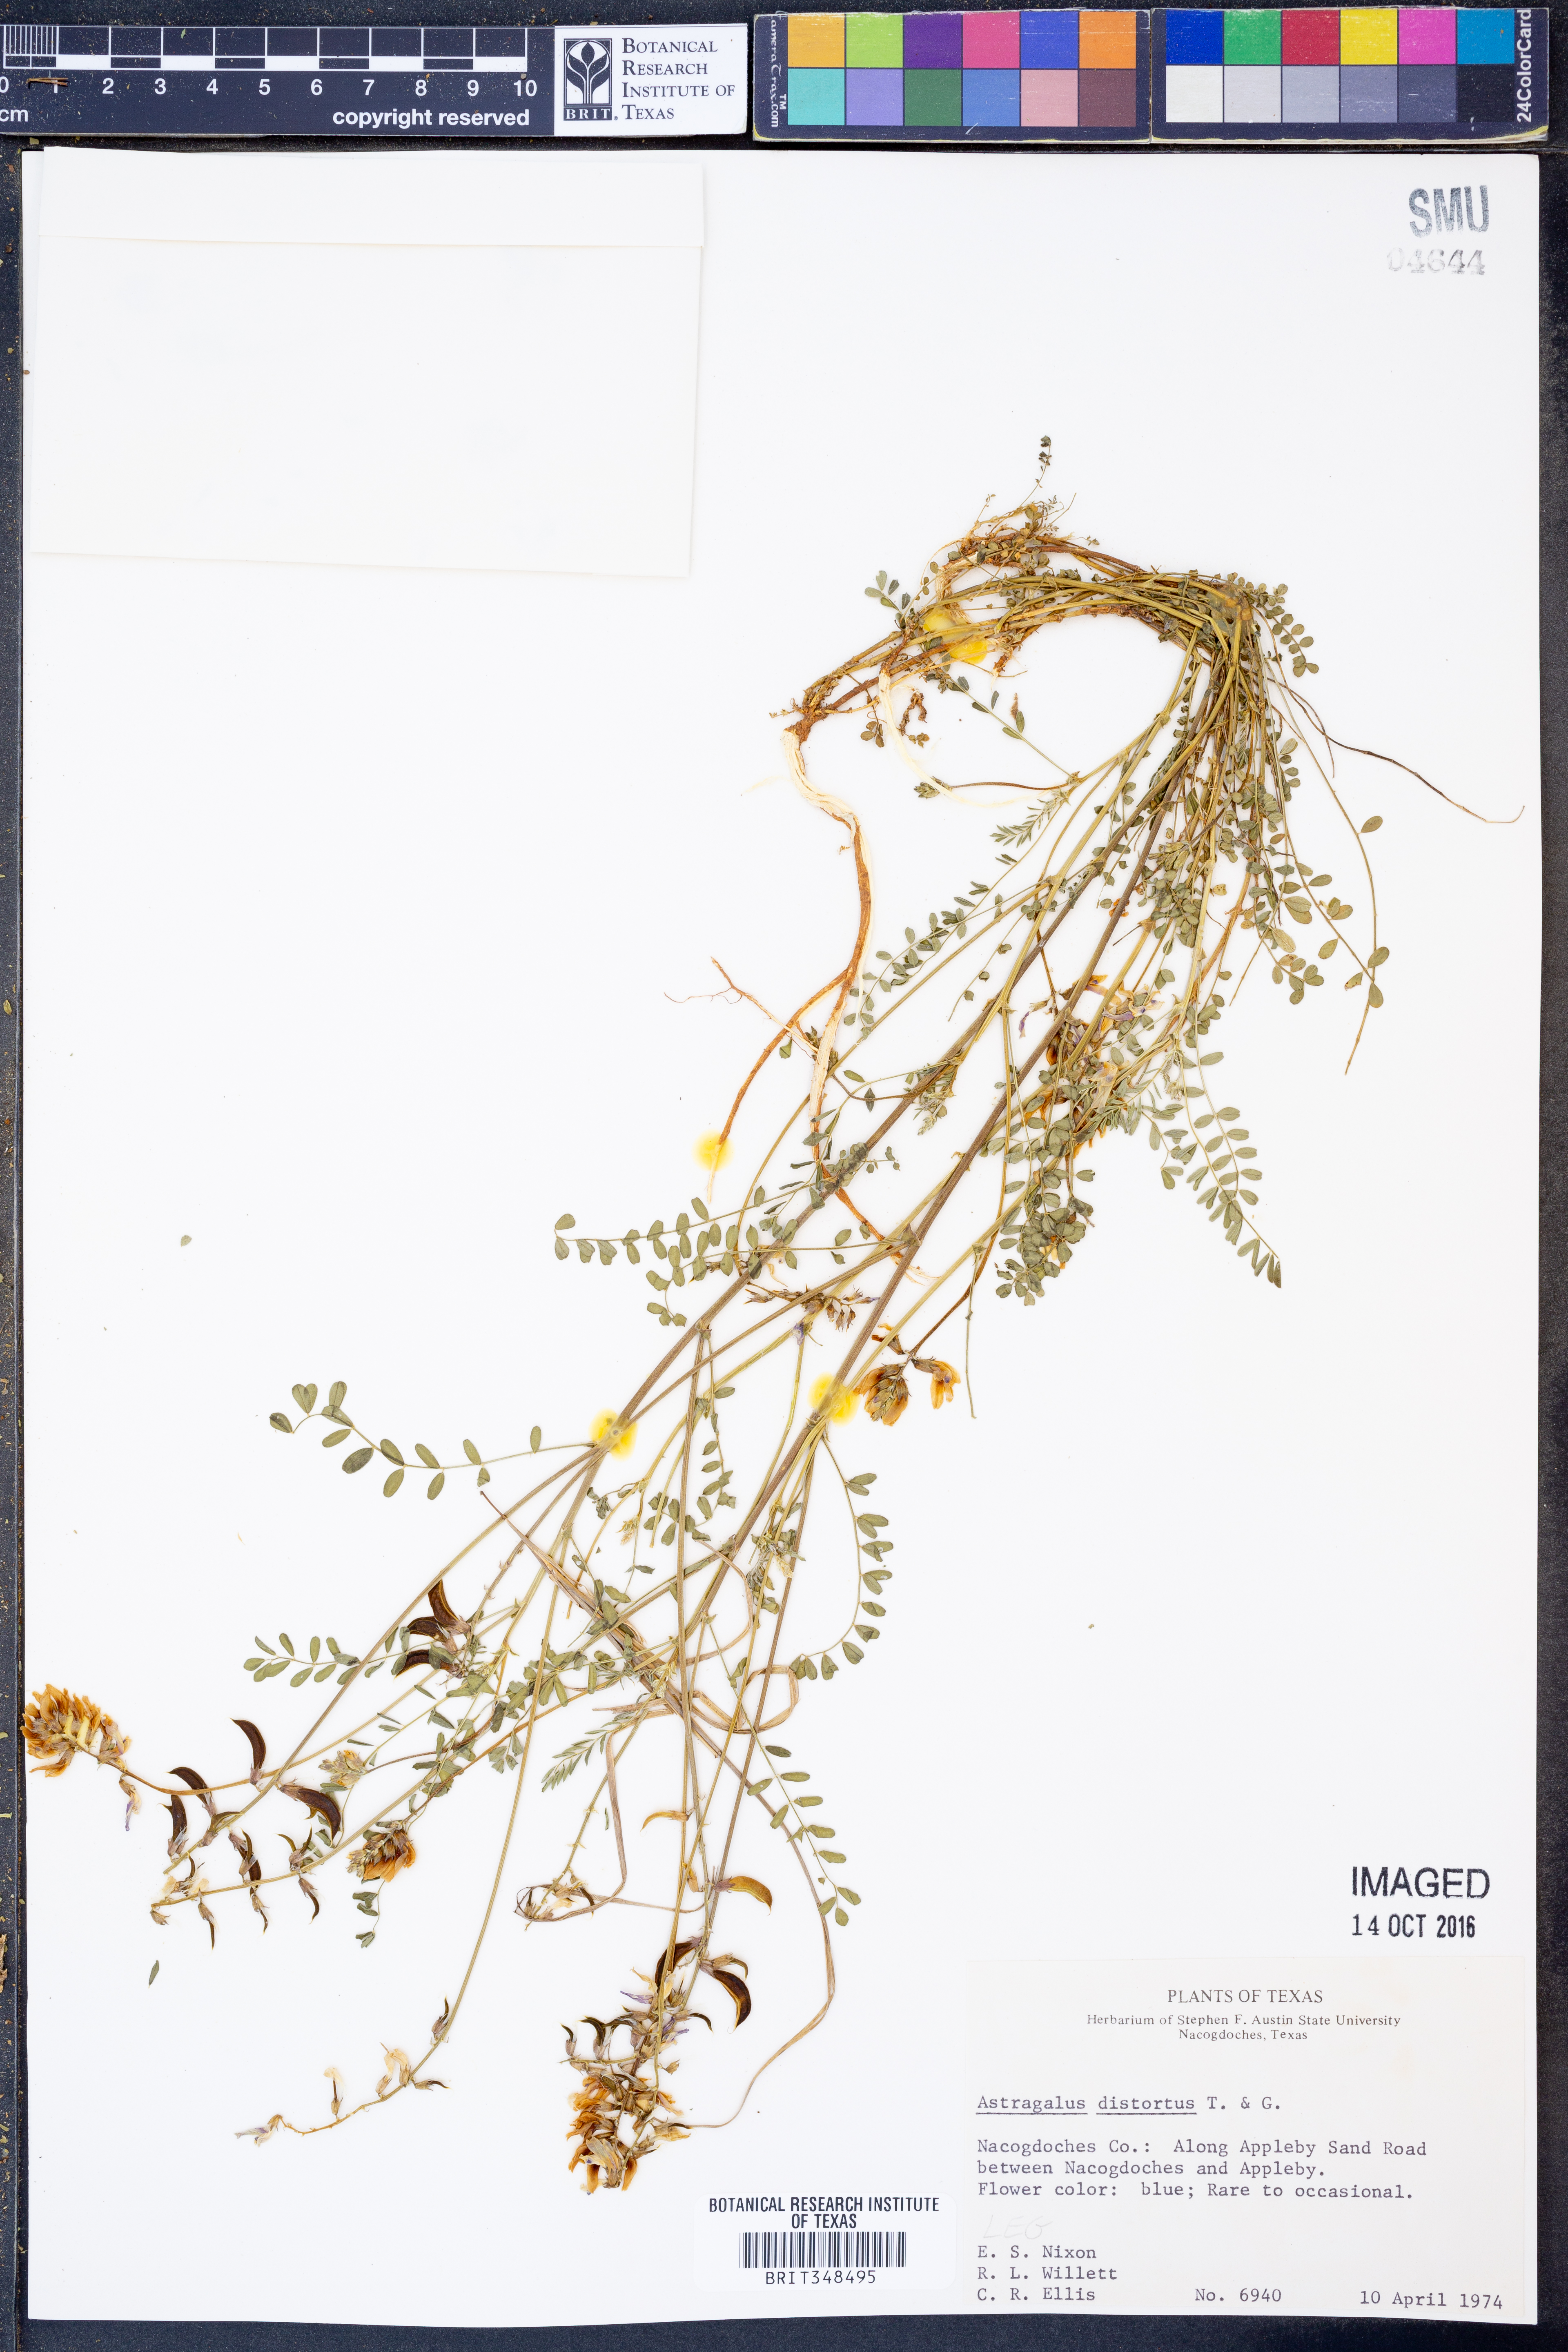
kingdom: Plantae
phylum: Tracheophyta
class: Magnoliopsida
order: Fabales
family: Fabaceae
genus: Astragalus
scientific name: Astragalus distortus
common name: Ozark milk-vetch
